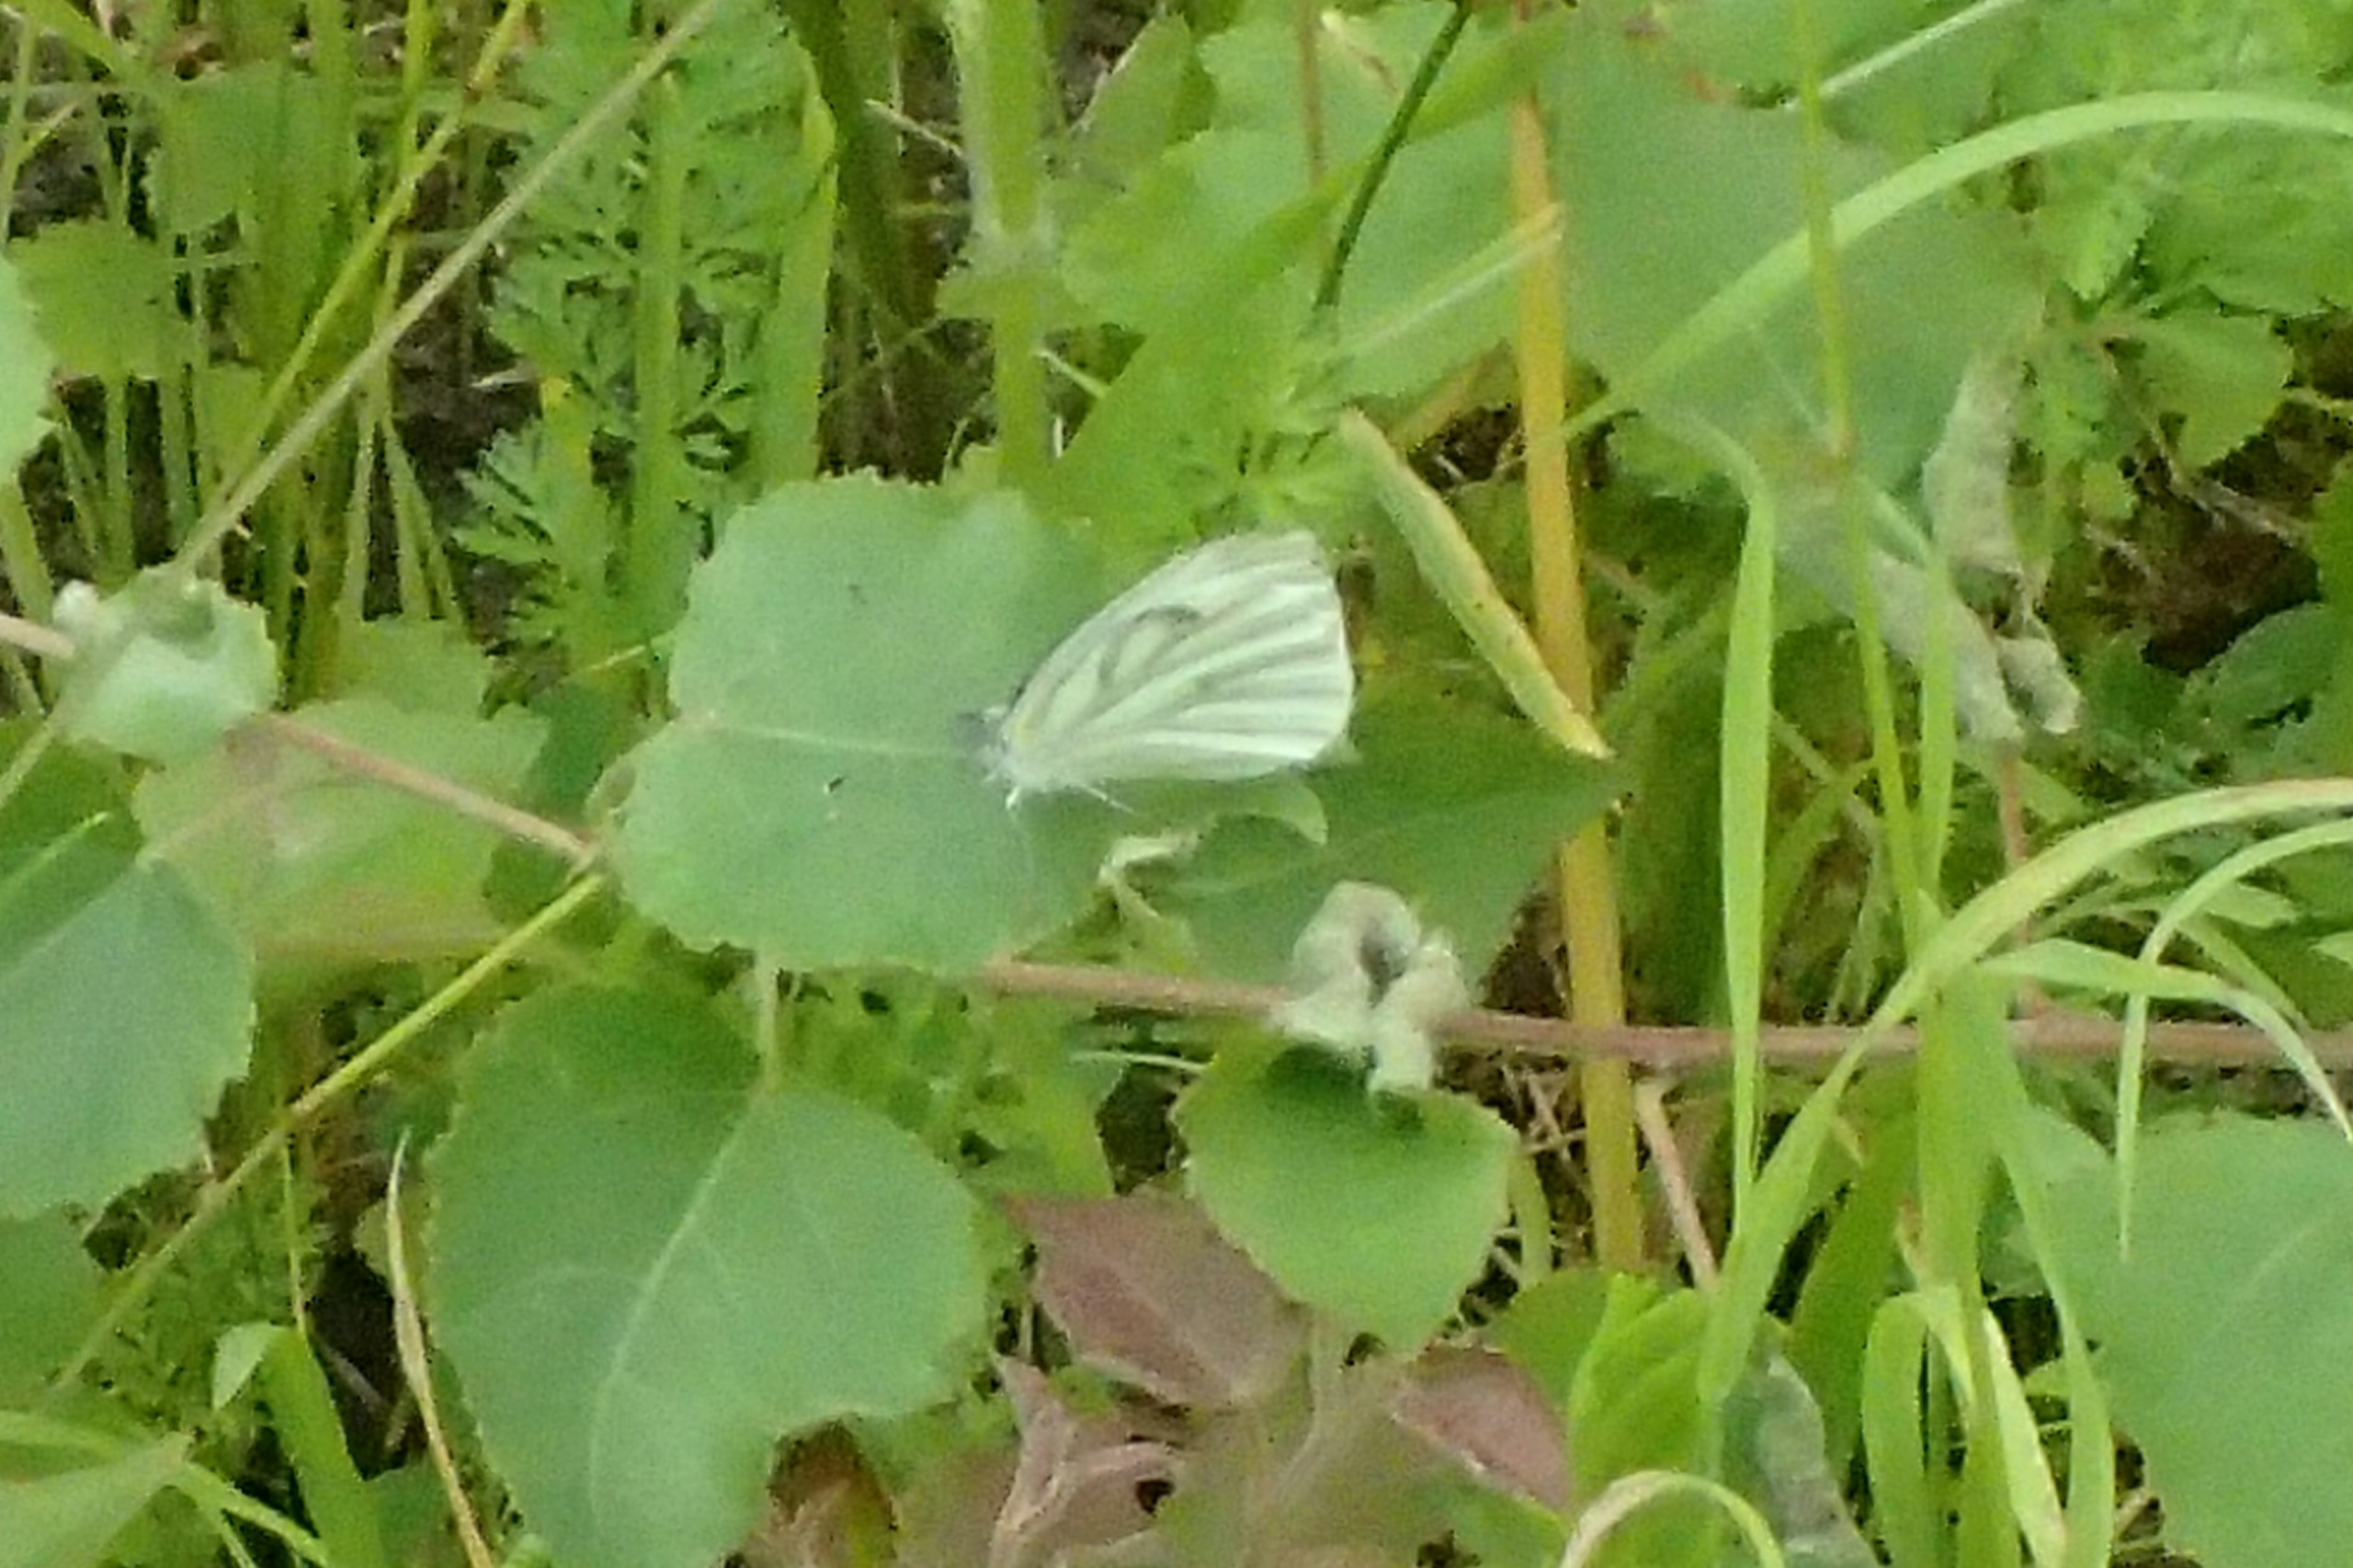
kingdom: Animalia
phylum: Arthropoda
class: Insecta
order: Lepidoptera
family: Pieridae
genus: Pieris
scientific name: Pieris napi
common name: Grønåret kålsommerfugl
